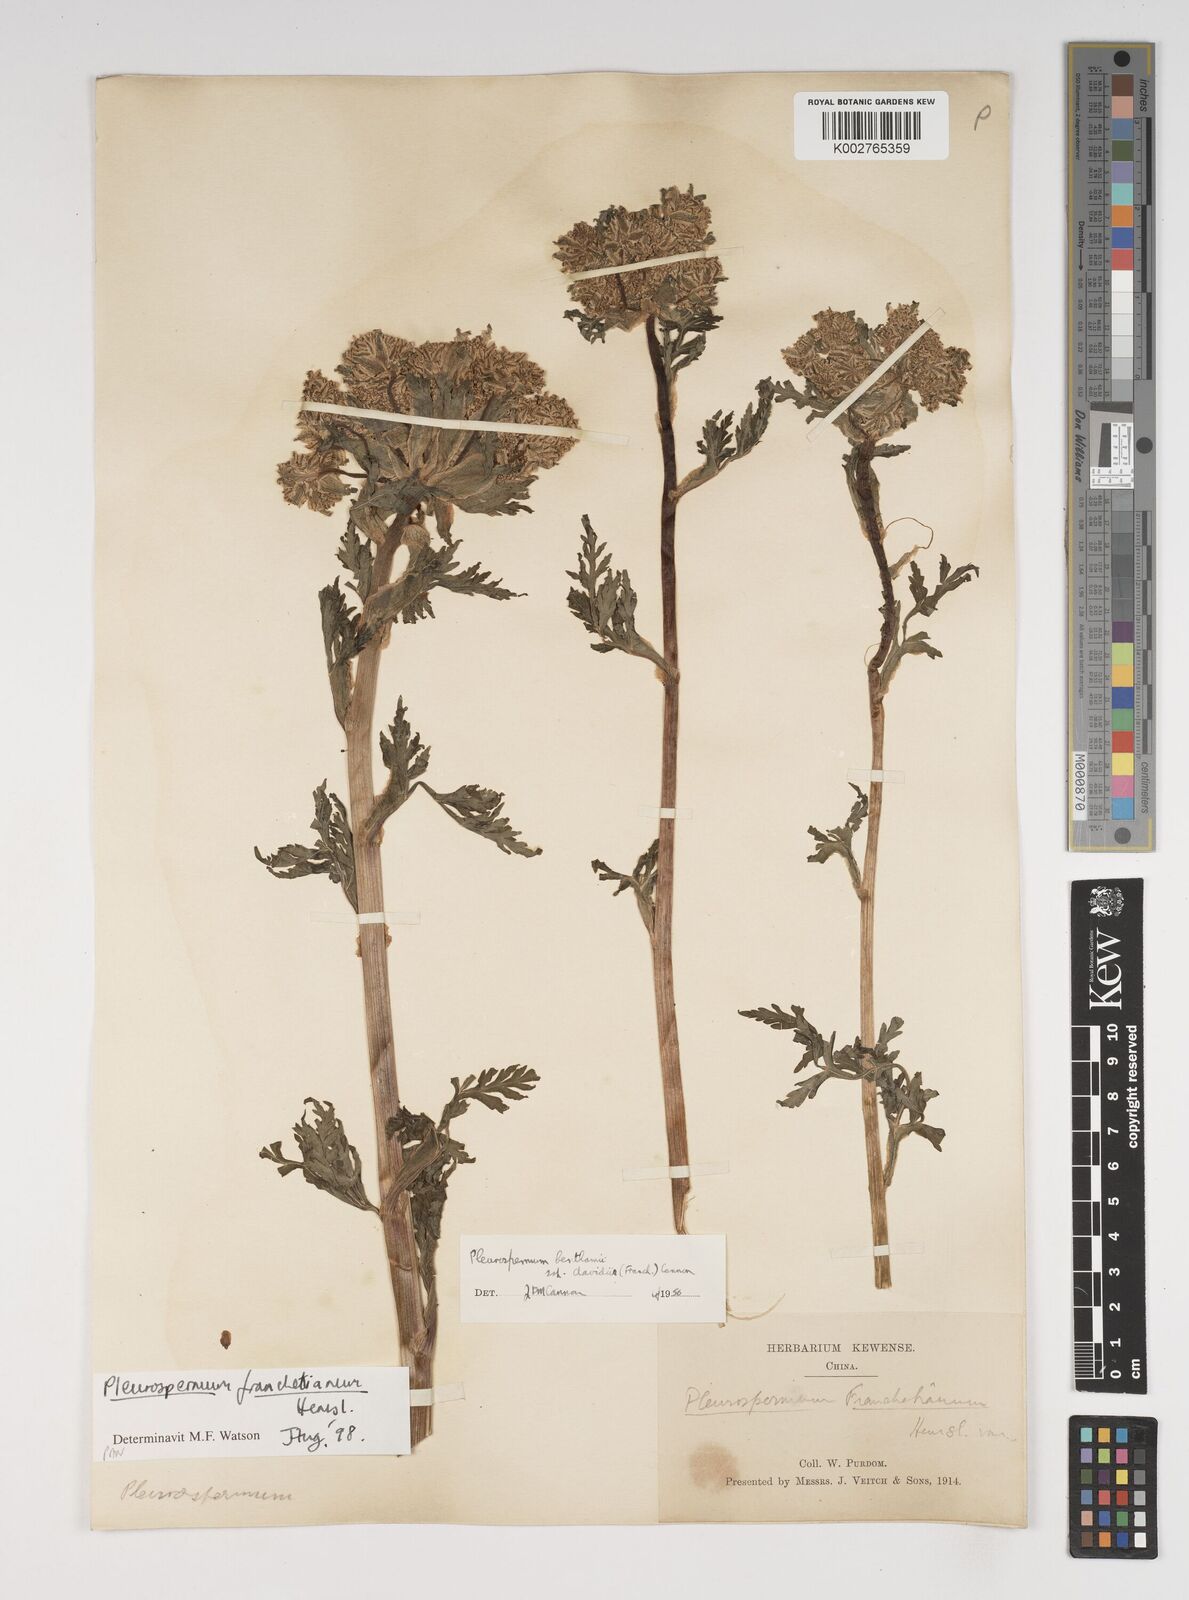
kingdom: Plantae
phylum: Tracheophyta
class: Magnoliopsida
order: Apiales
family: Apiaceae
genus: Hymenidium
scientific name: Hymenidium
